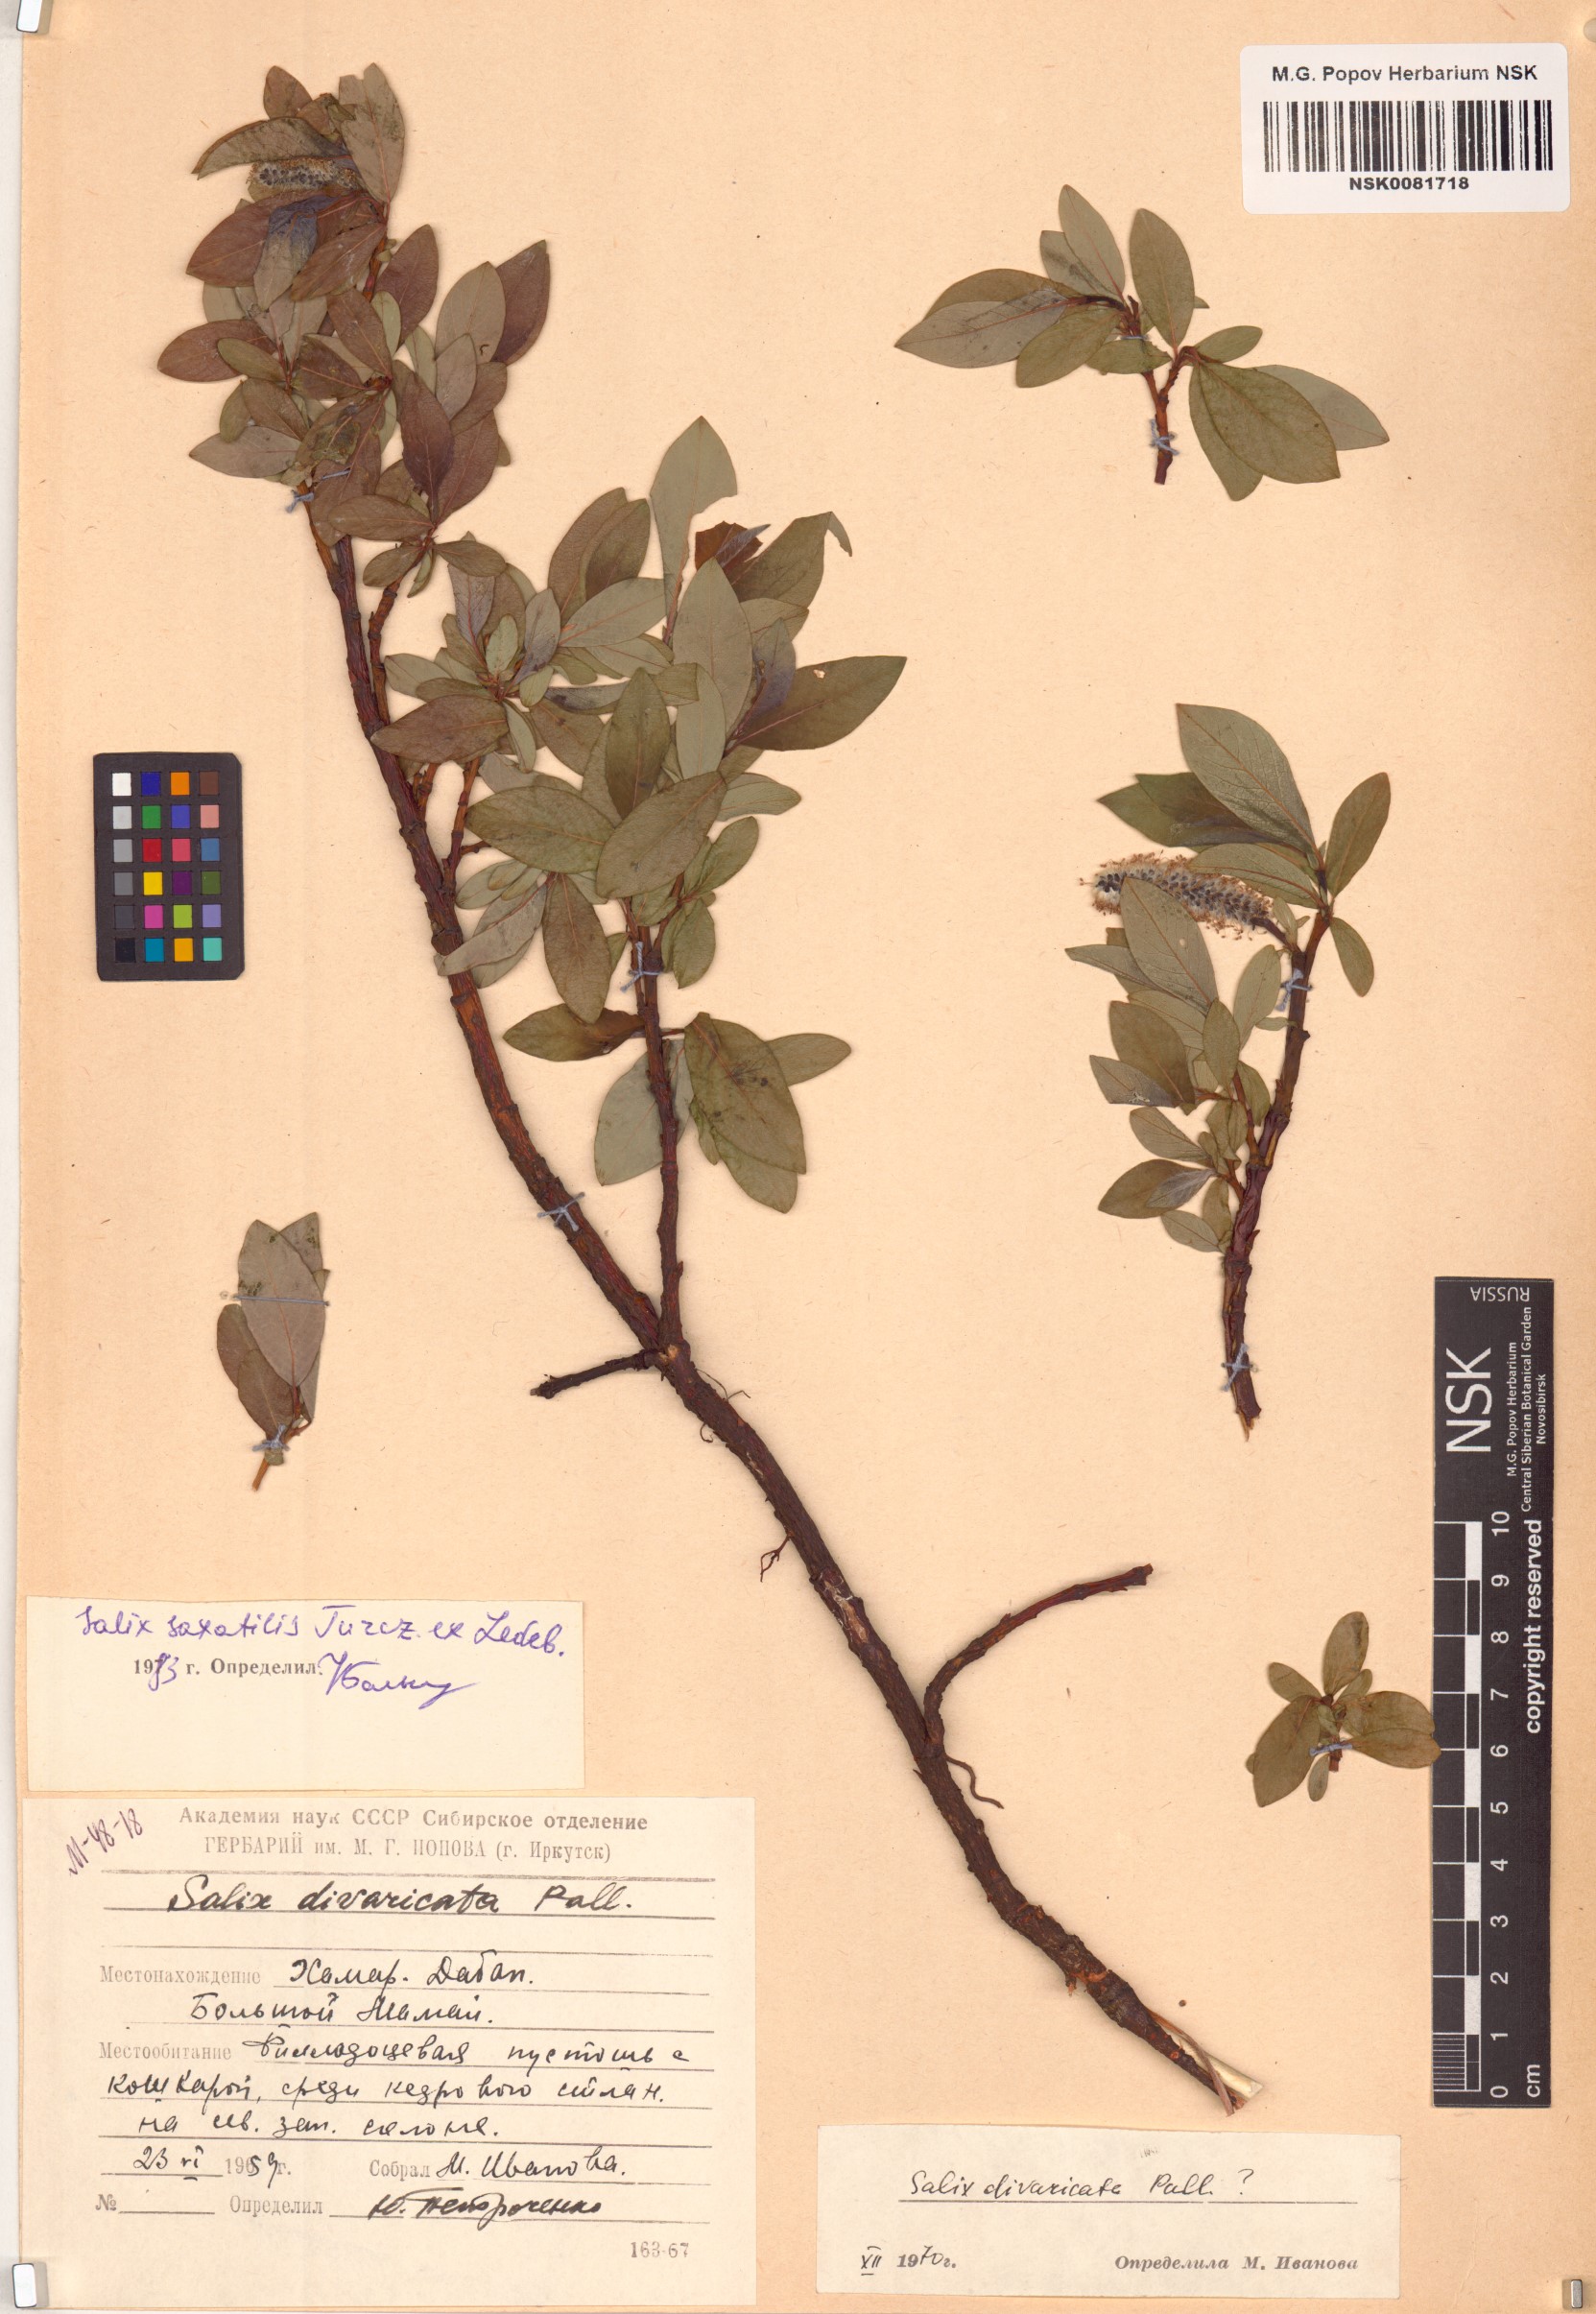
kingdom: Plantae
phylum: Tracheophyta
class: Magnoliopsida
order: Malpighiales
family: Salicaceae
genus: Salix
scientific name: Salix saxatilis
